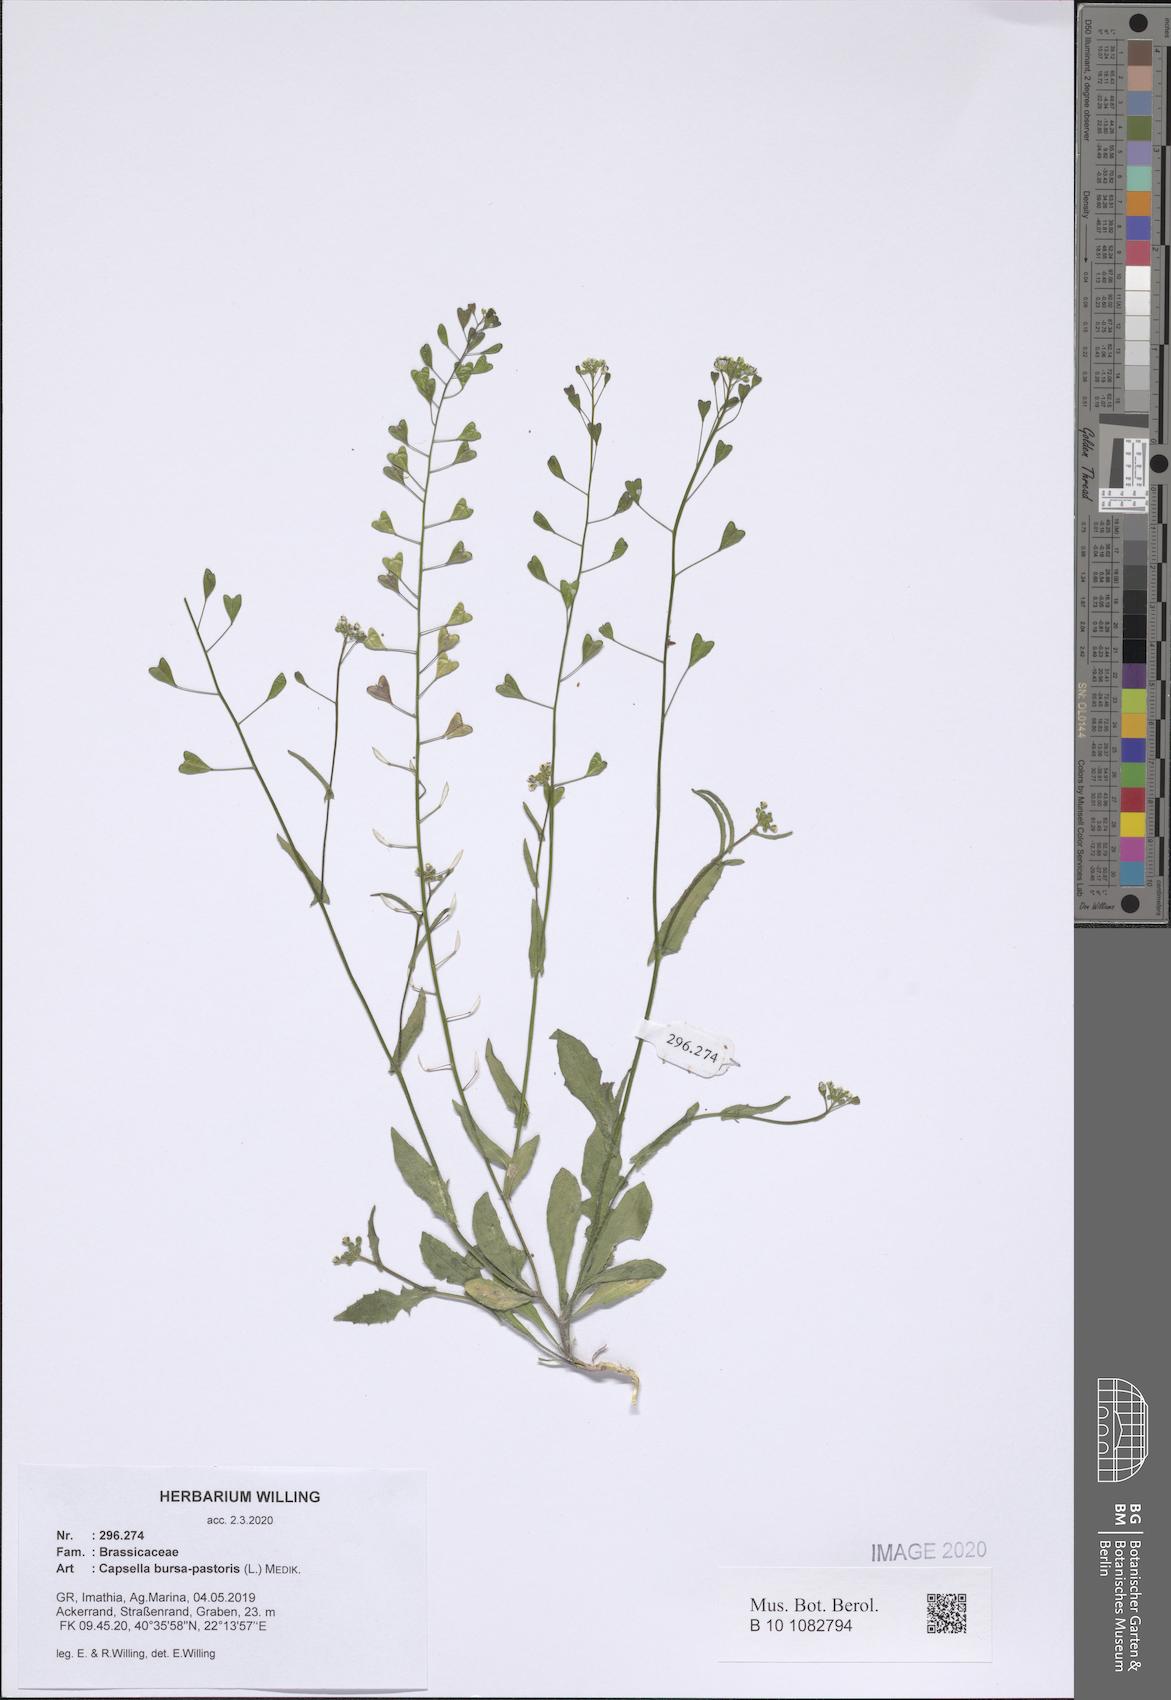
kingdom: Plantae
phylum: Tracheophyta
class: Magnoliopsida
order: Brassicales
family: Brassicaceae
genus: Capsella
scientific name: Capsella bursa-pastoris
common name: Shepherd's purse
